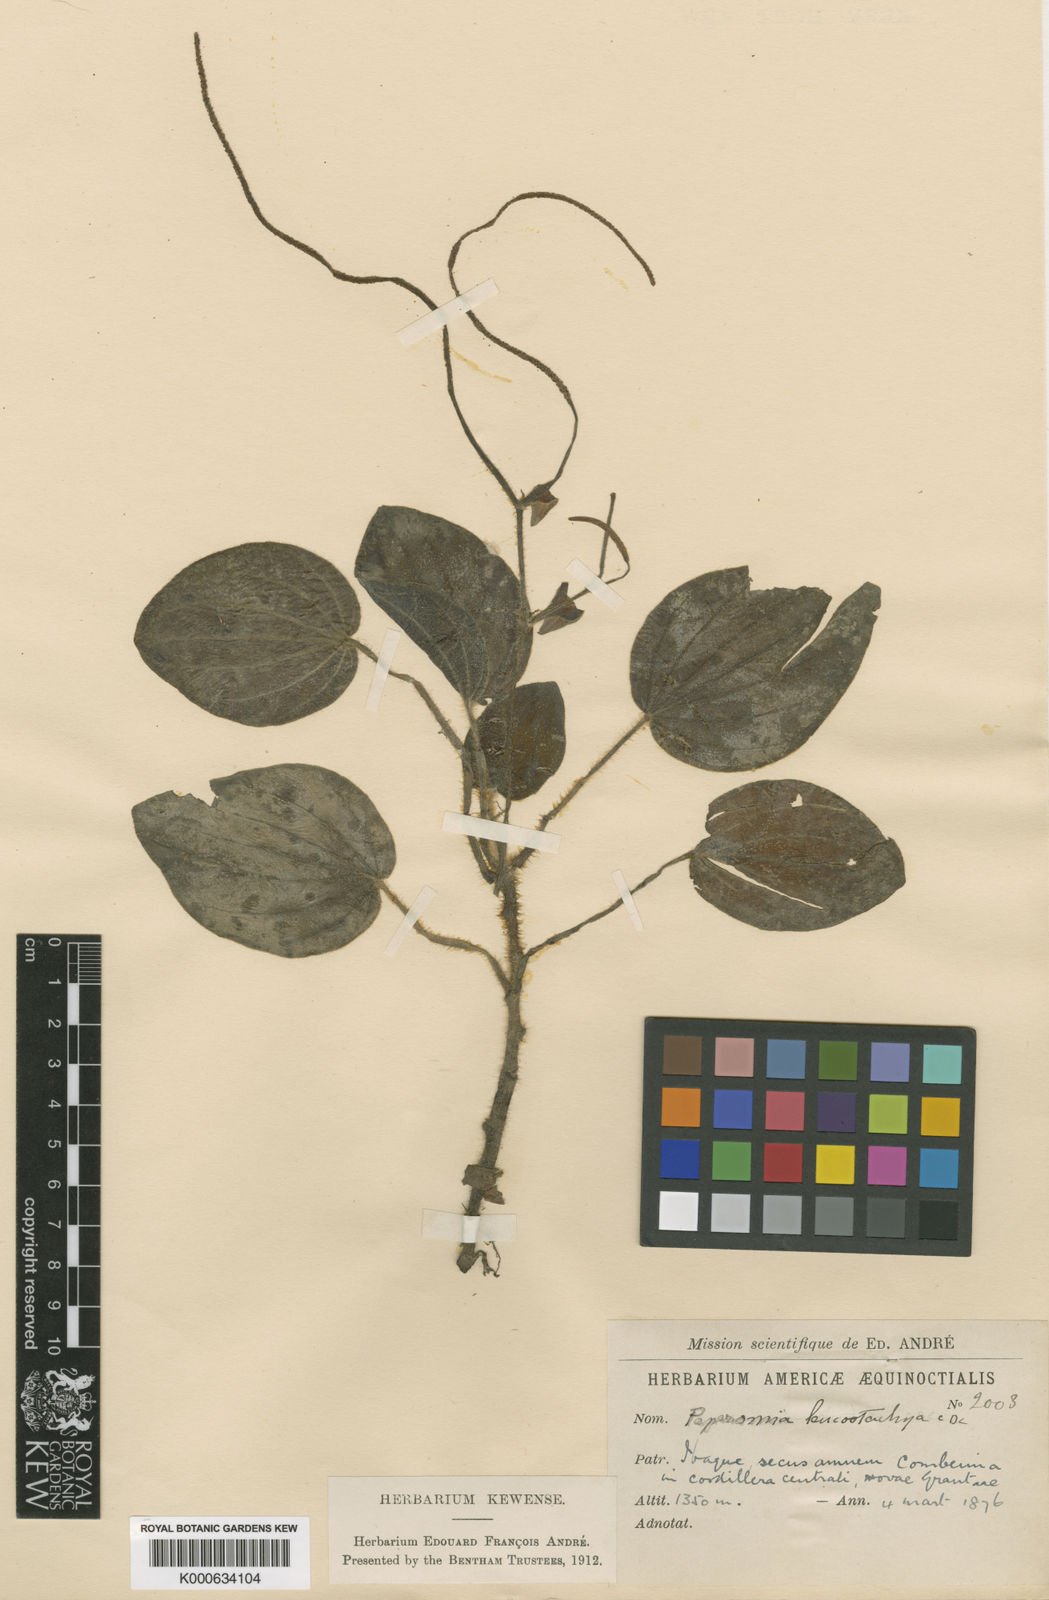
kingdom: Plantae
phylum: Tracheophyta
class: Magnoliopsida
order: Piperales
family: Piperaceae
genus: Peperomia
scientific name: Peperomia leucostachya
